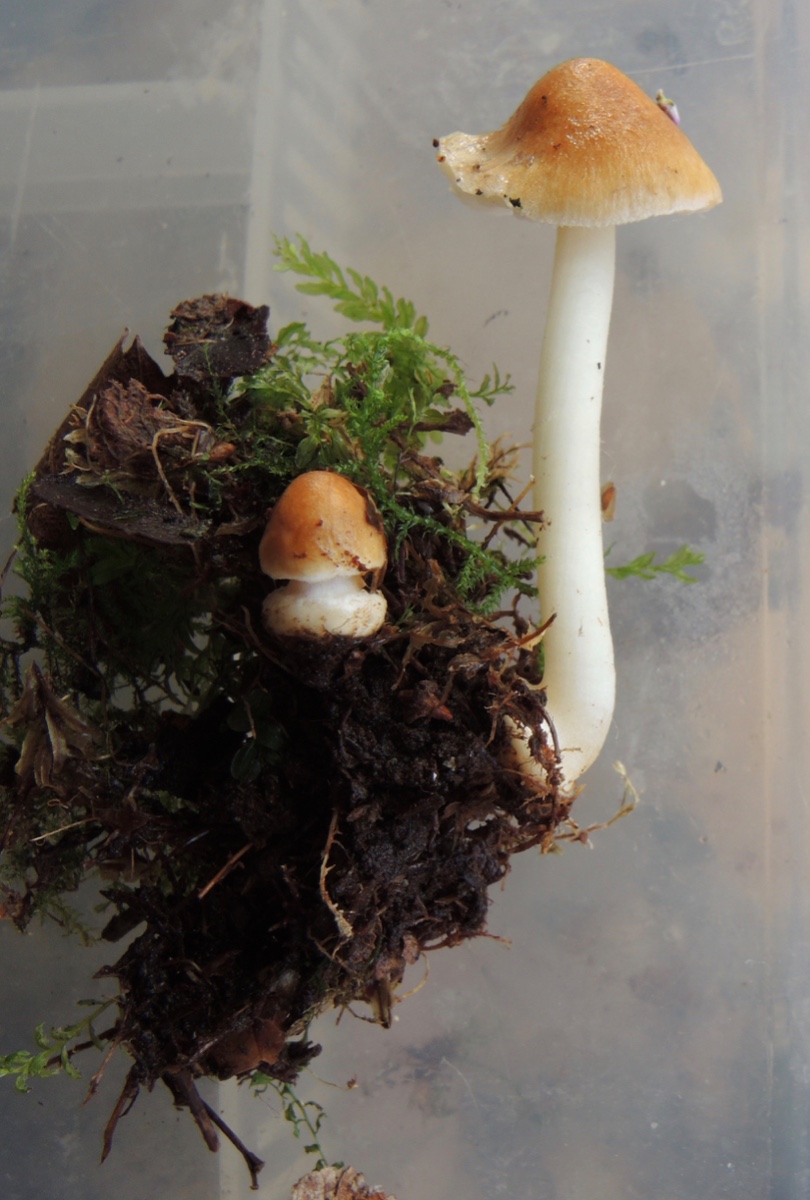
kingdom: Fungi
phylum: Basidiomycota
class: Agaricomycetes
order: Agaricales
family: Inocybaceae
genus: Inocybe
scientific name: Inocybe mixtilis
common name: randknoldet trævlhat
